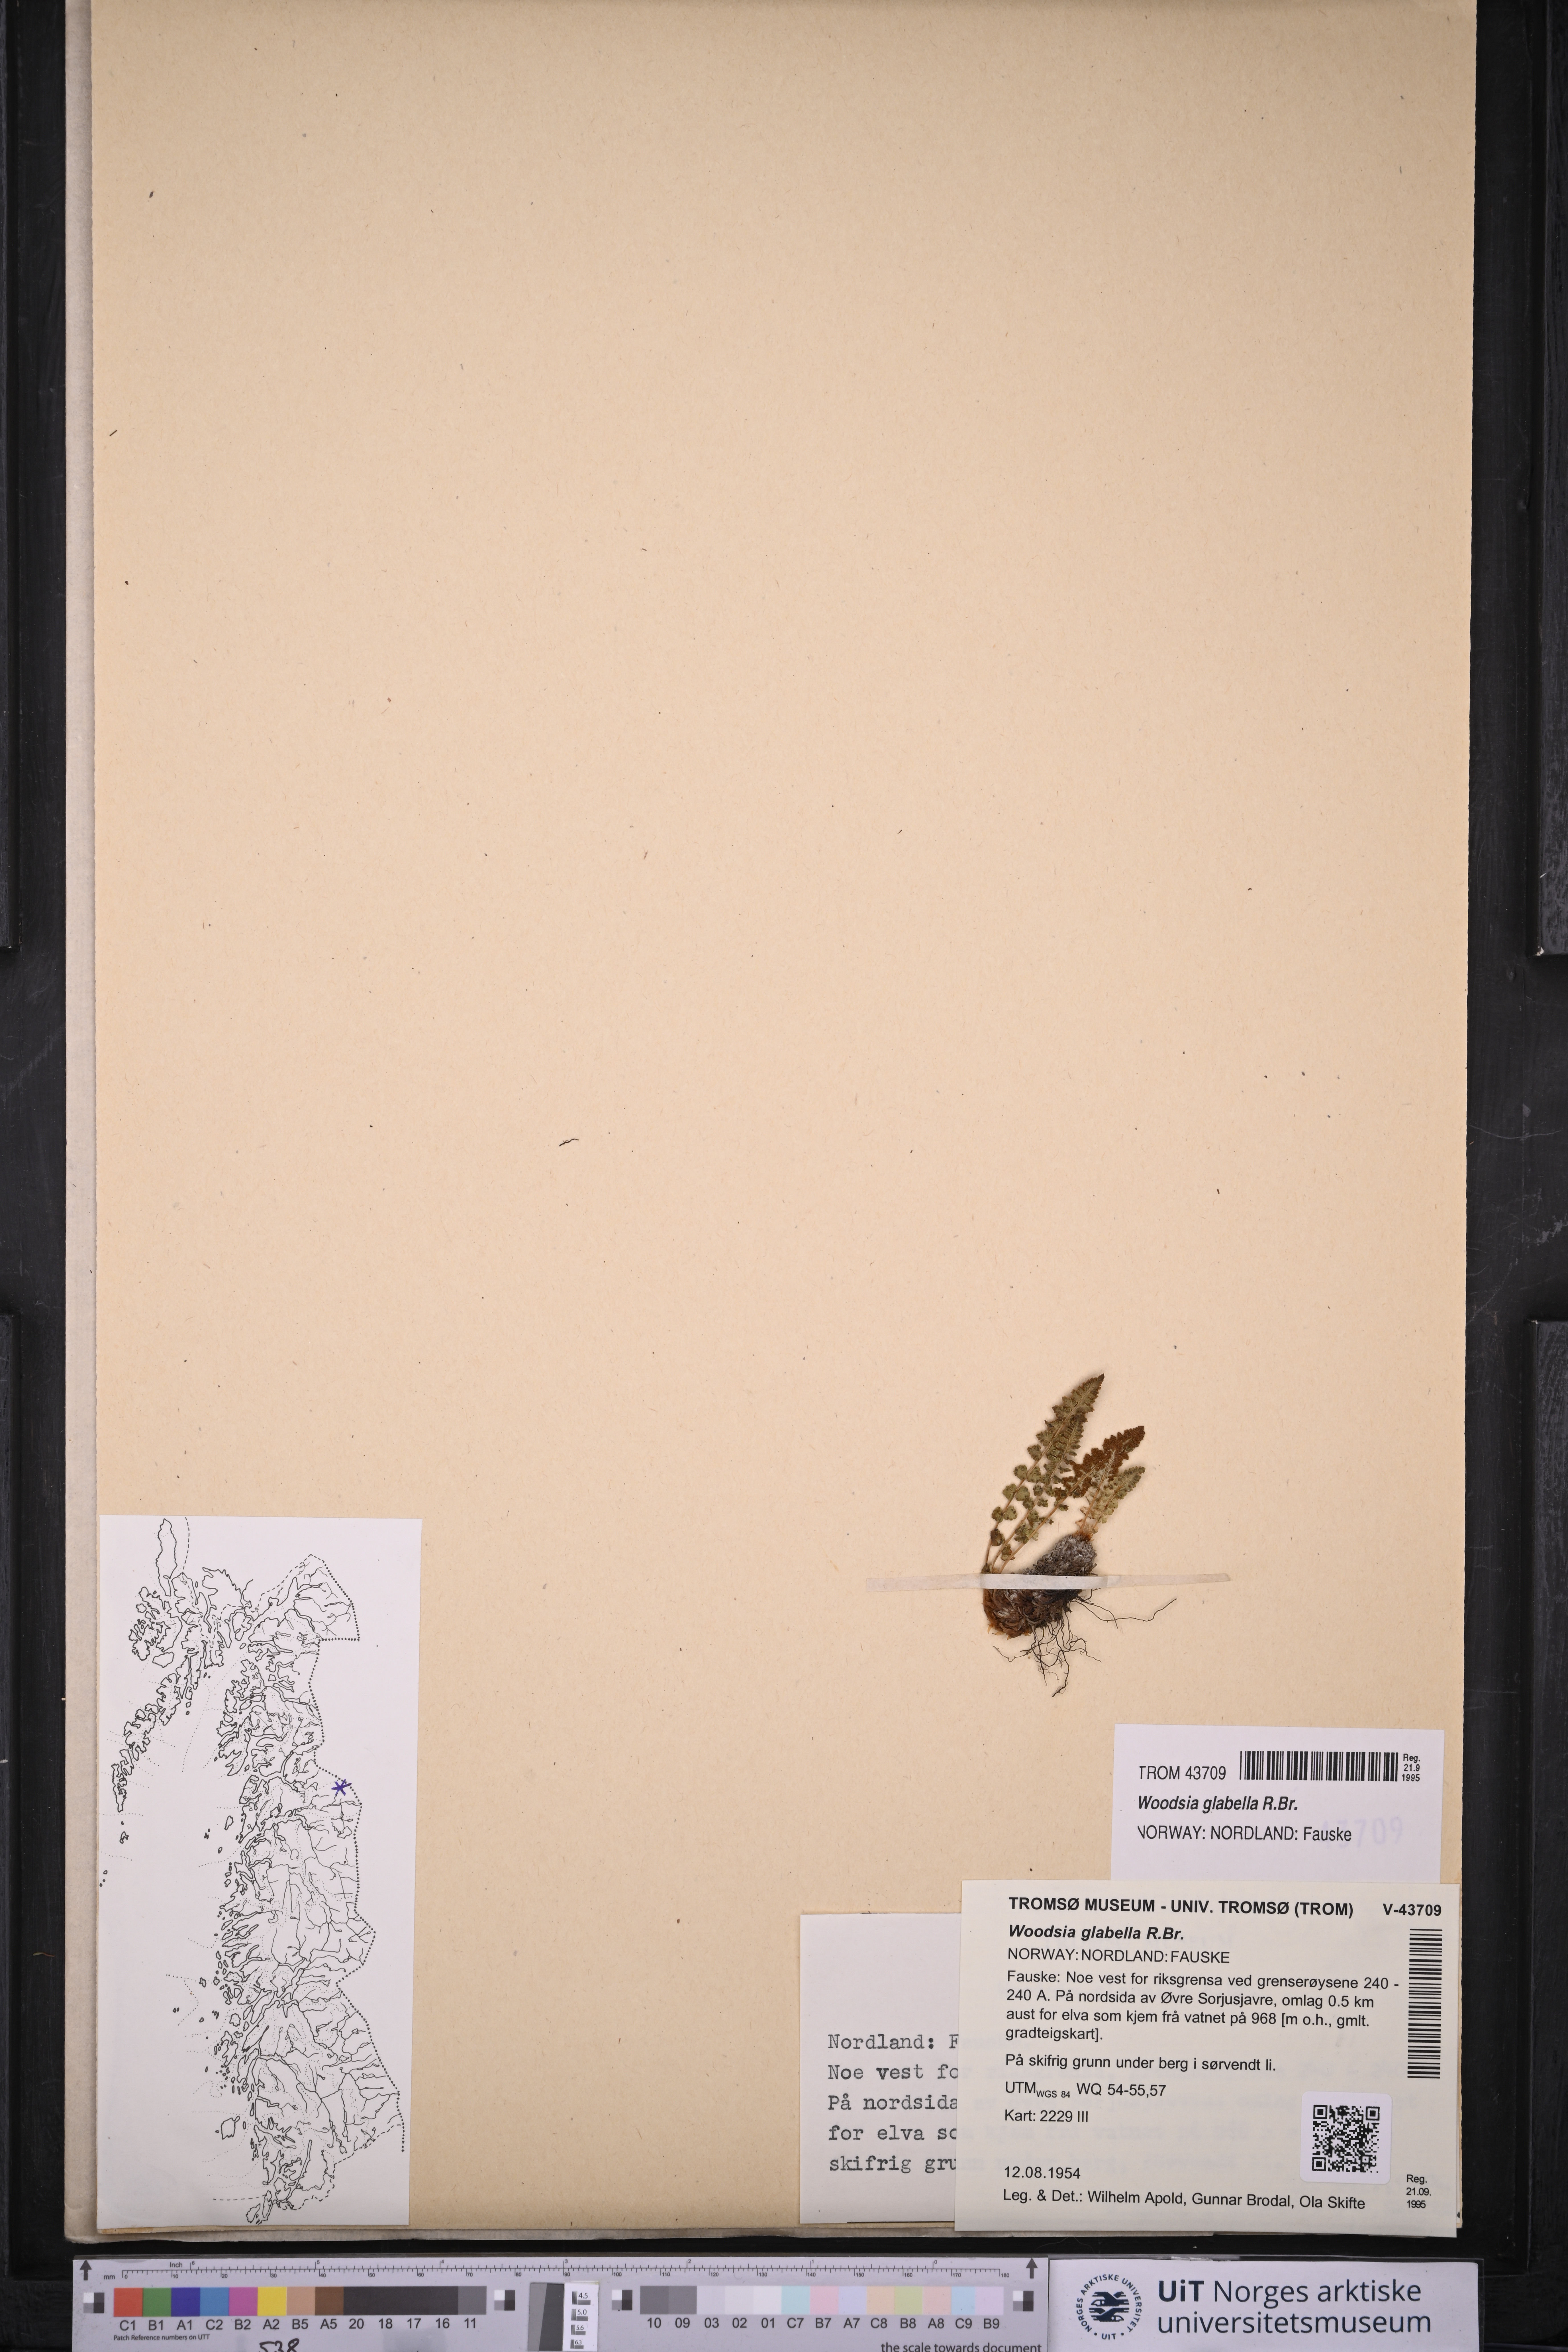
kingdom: Plantae
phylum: Tracheophyta
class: Polypodiopsida
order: Polypodiales
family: Woodsiaceae
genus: Woodsia
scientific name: Woodsia glabella
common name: Smooth woodsia
